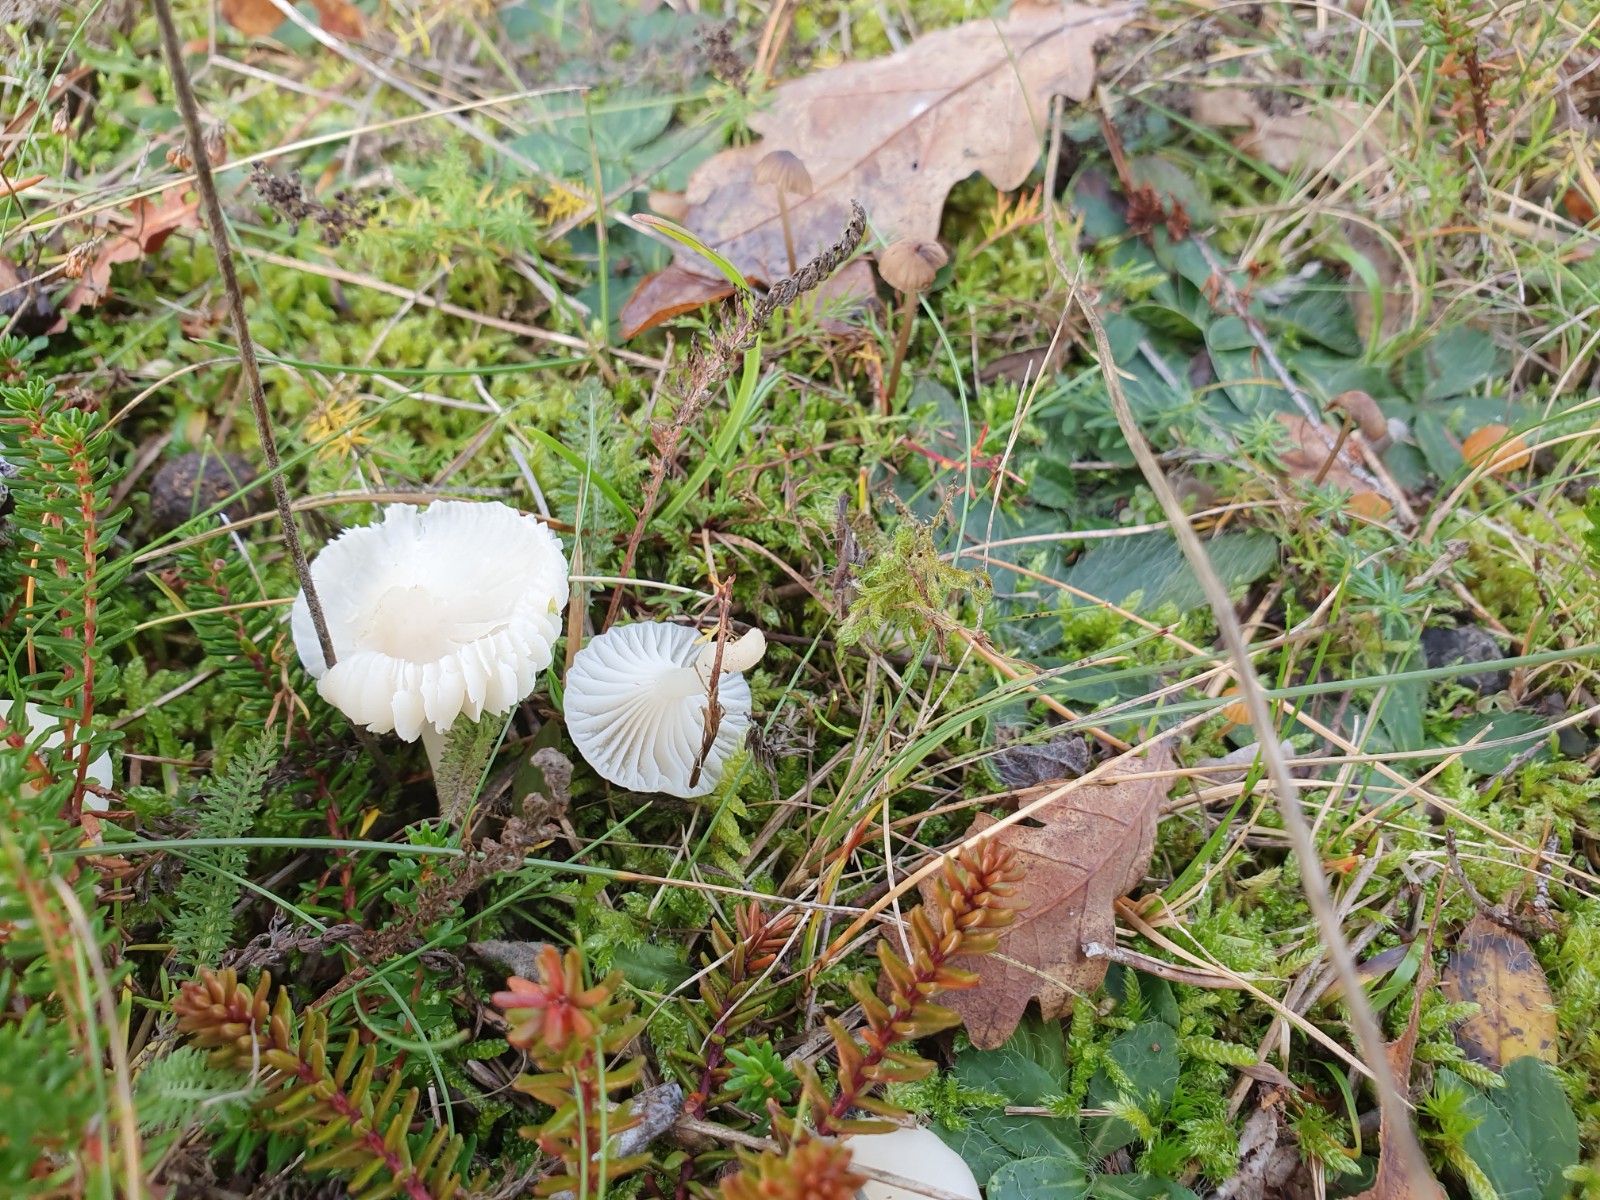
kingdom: Fungi
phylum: Basidiomycota
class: Agaricomycetes
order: Agaricales
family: Hygrophoraceae
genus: Cuphophyllus
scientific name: Cuphophyllus virgineus
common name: snehvid vokshat
